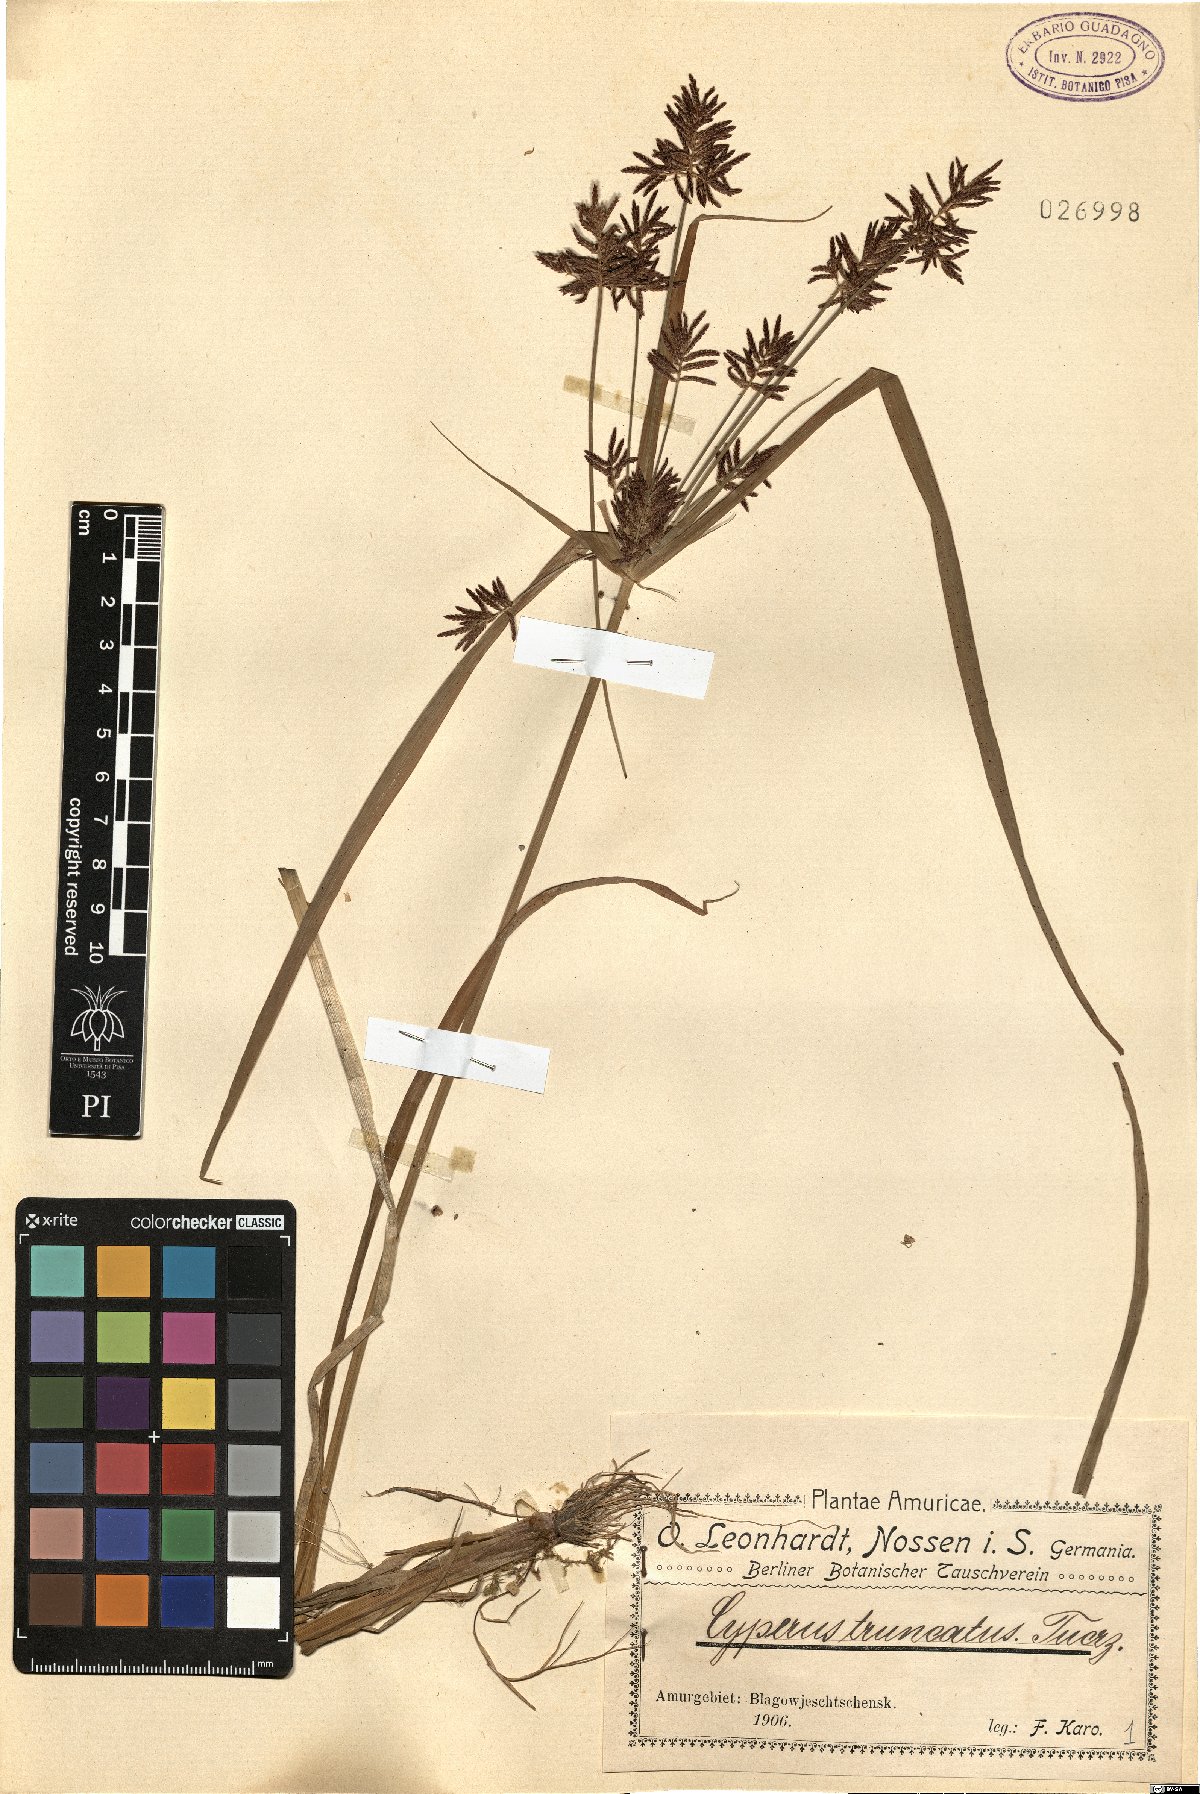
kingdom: Plantae
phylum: Tracheophyta
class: Liliopsida
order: Poales
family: Cyperaceae
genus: Cyperus
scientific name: Cyperus orthostachyus
